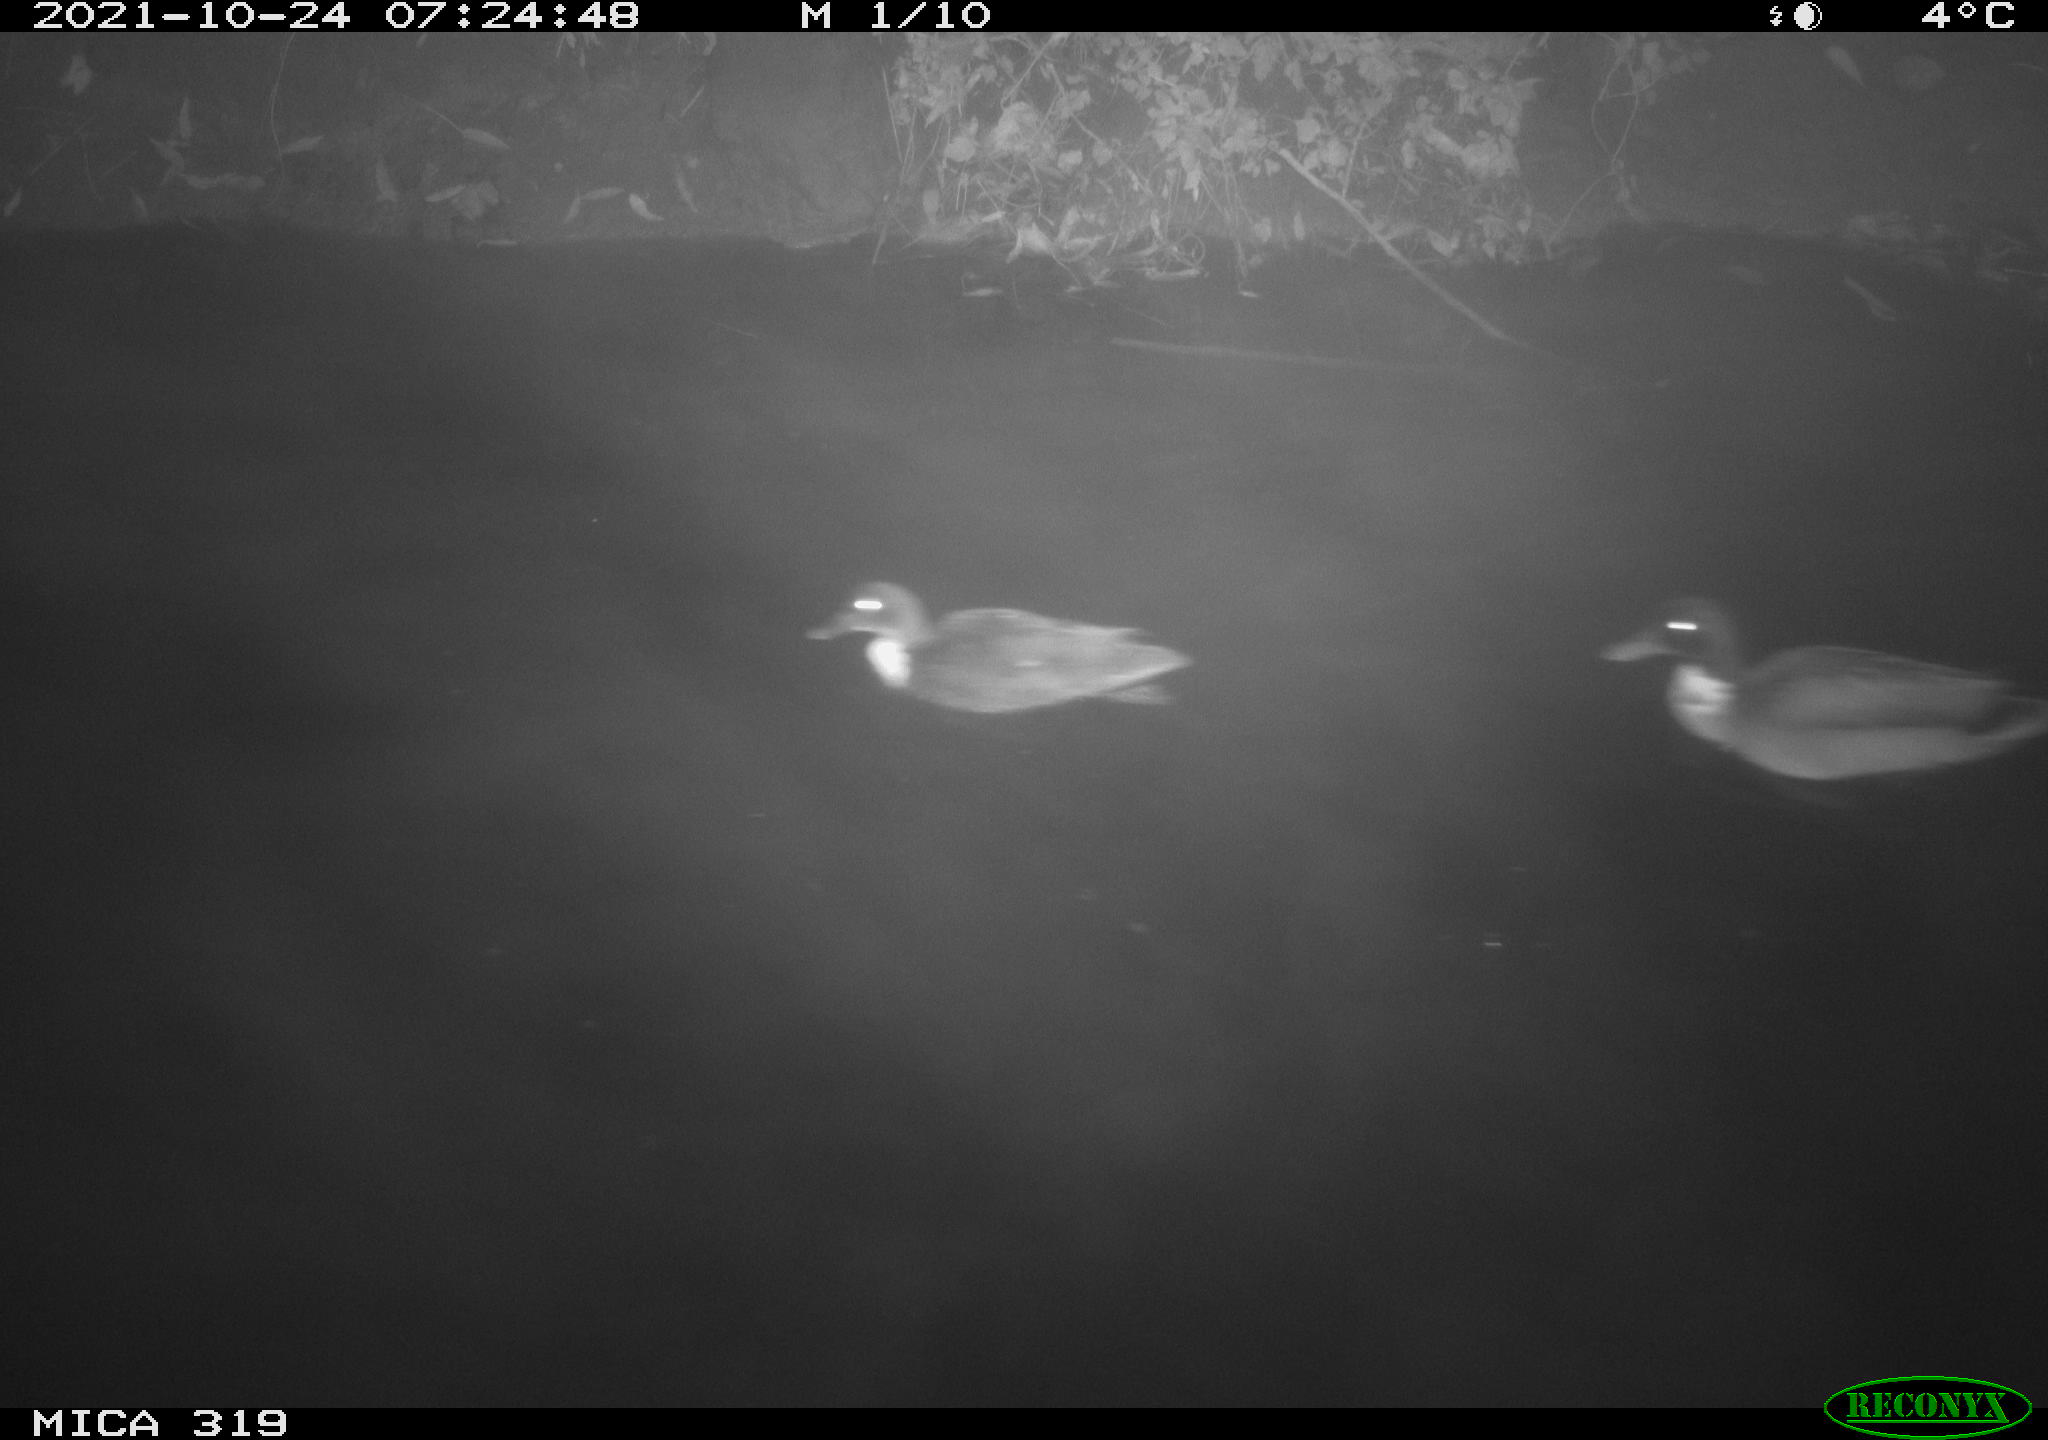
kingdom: Animalia
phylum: Chordata
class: Aves
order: Anseriformes
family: Anatidae
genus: Anas
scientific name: Anas platyrhynchos
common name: Mallard
